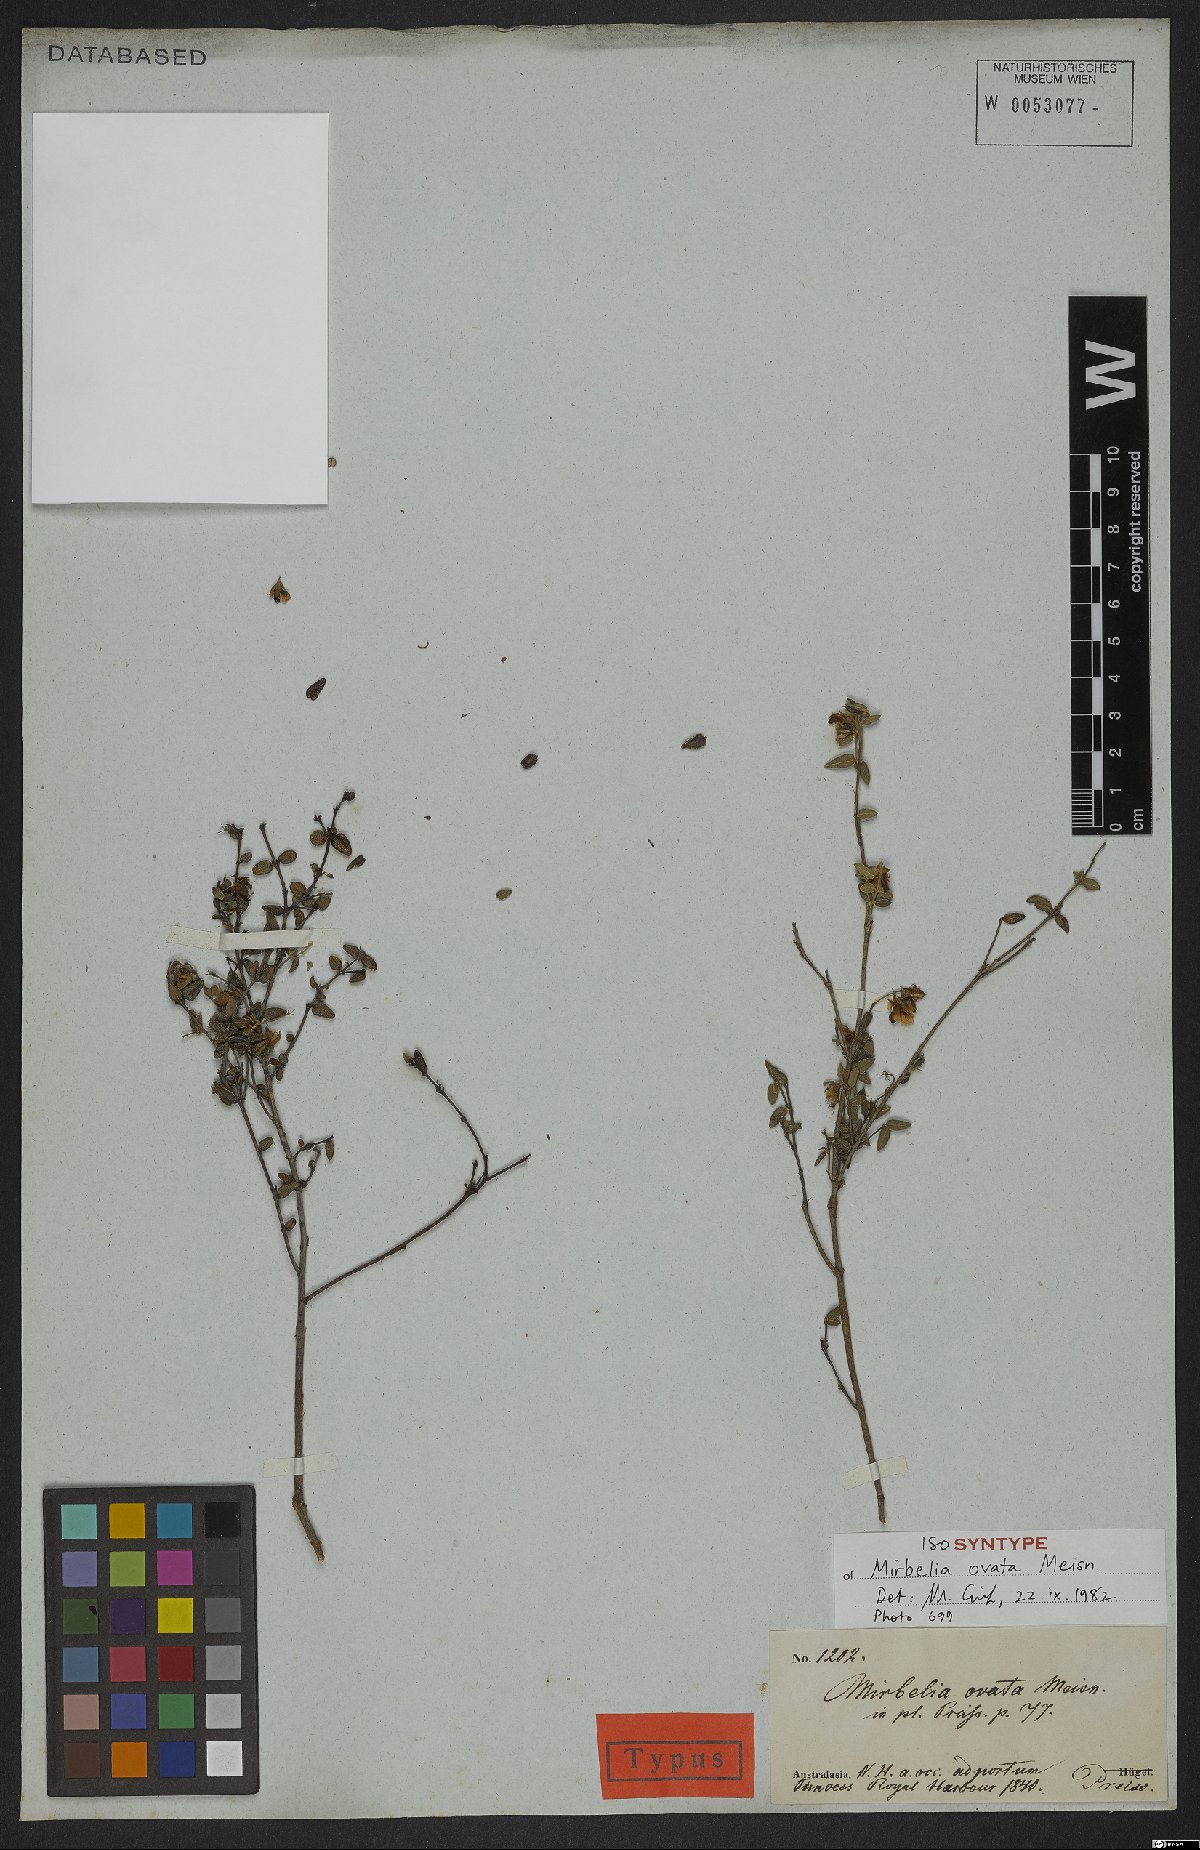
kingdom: Plantae
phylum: Tracheophyta
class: Magnoliopsida
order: Fabales
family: Fabaceae
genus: Mirbelia
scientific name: Mirbelia ovata
